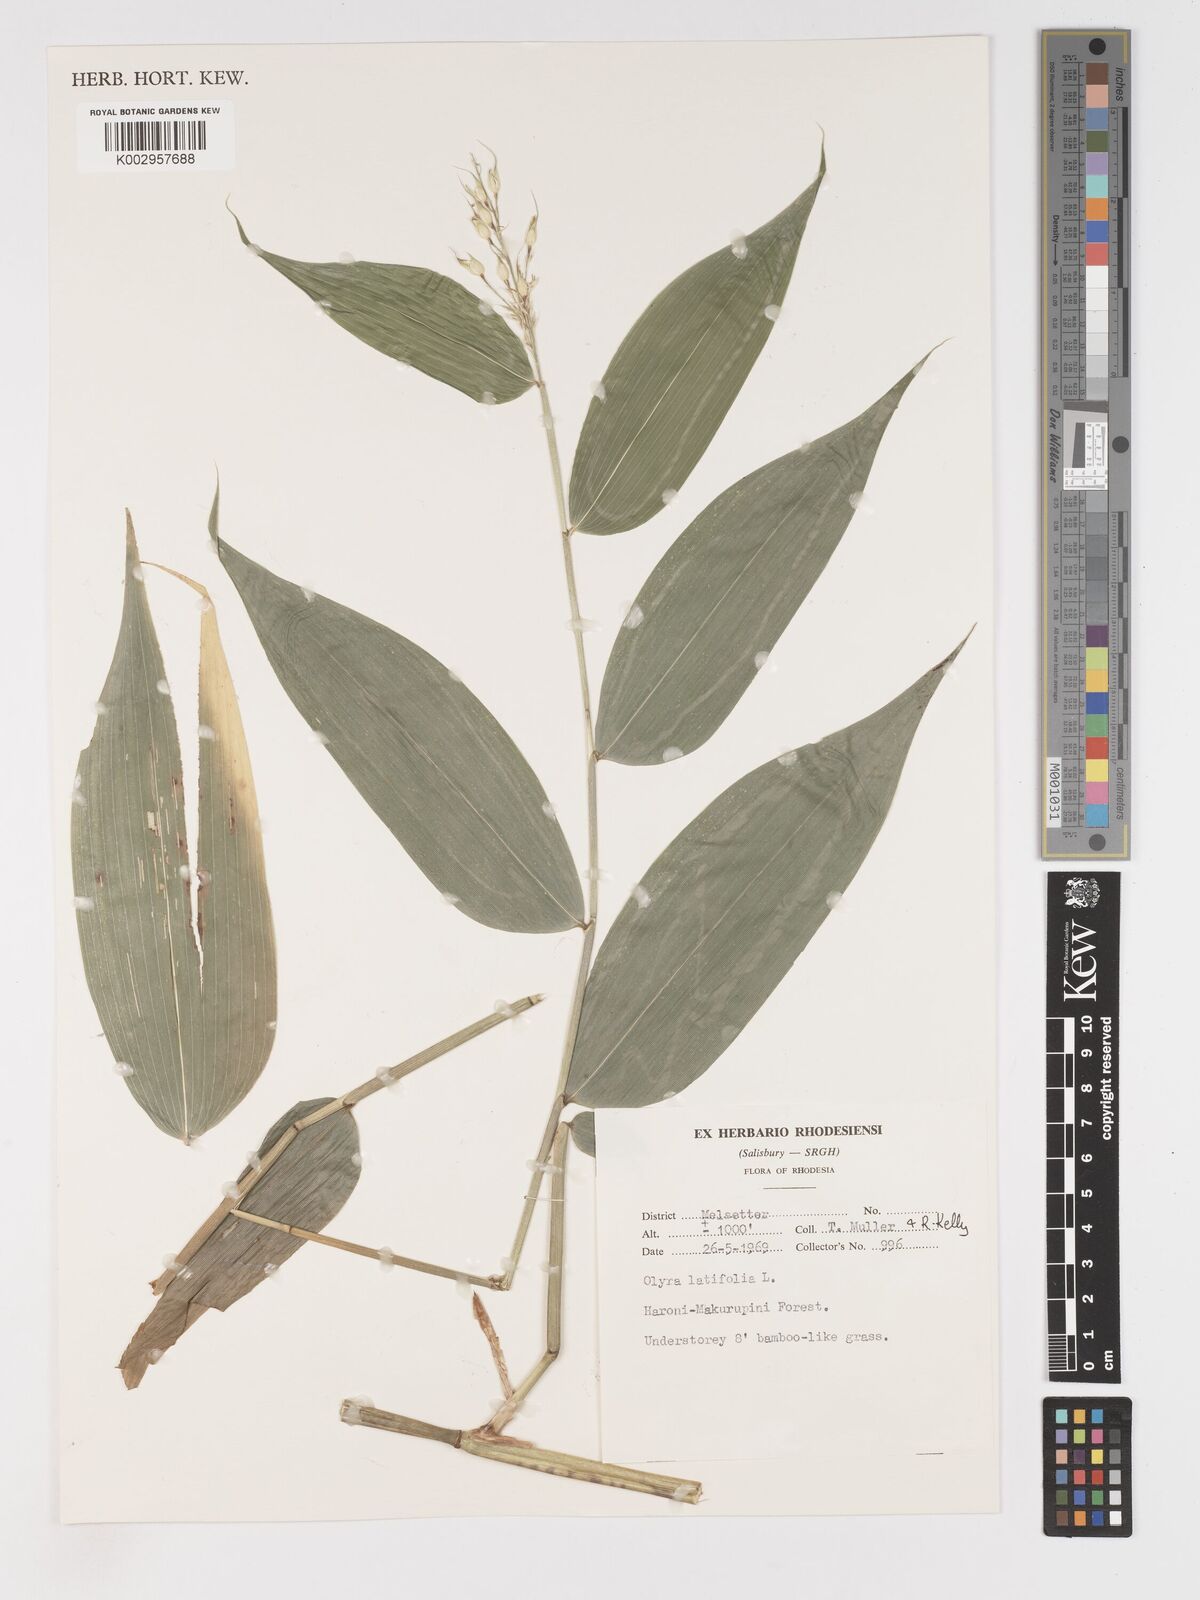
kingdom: Plantae
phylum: Tracheophyta
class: Liliopsida
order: Poales
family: Poaceae
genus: Olyra
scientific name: Olyra latifolia
